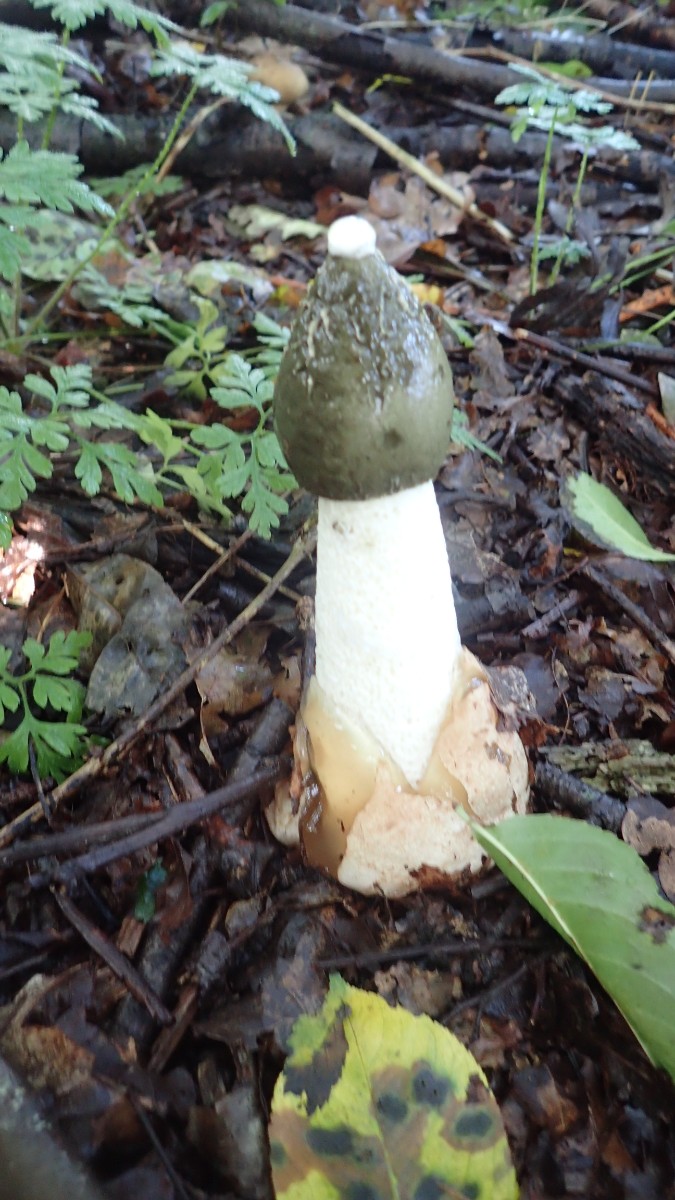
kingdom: Fungi
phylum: Basidiomycota
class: Agaricomycetes
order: Phallales
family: Phallaceae
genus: Phallus
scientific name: Phallus impudicus
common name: almindelig stinksvamp
